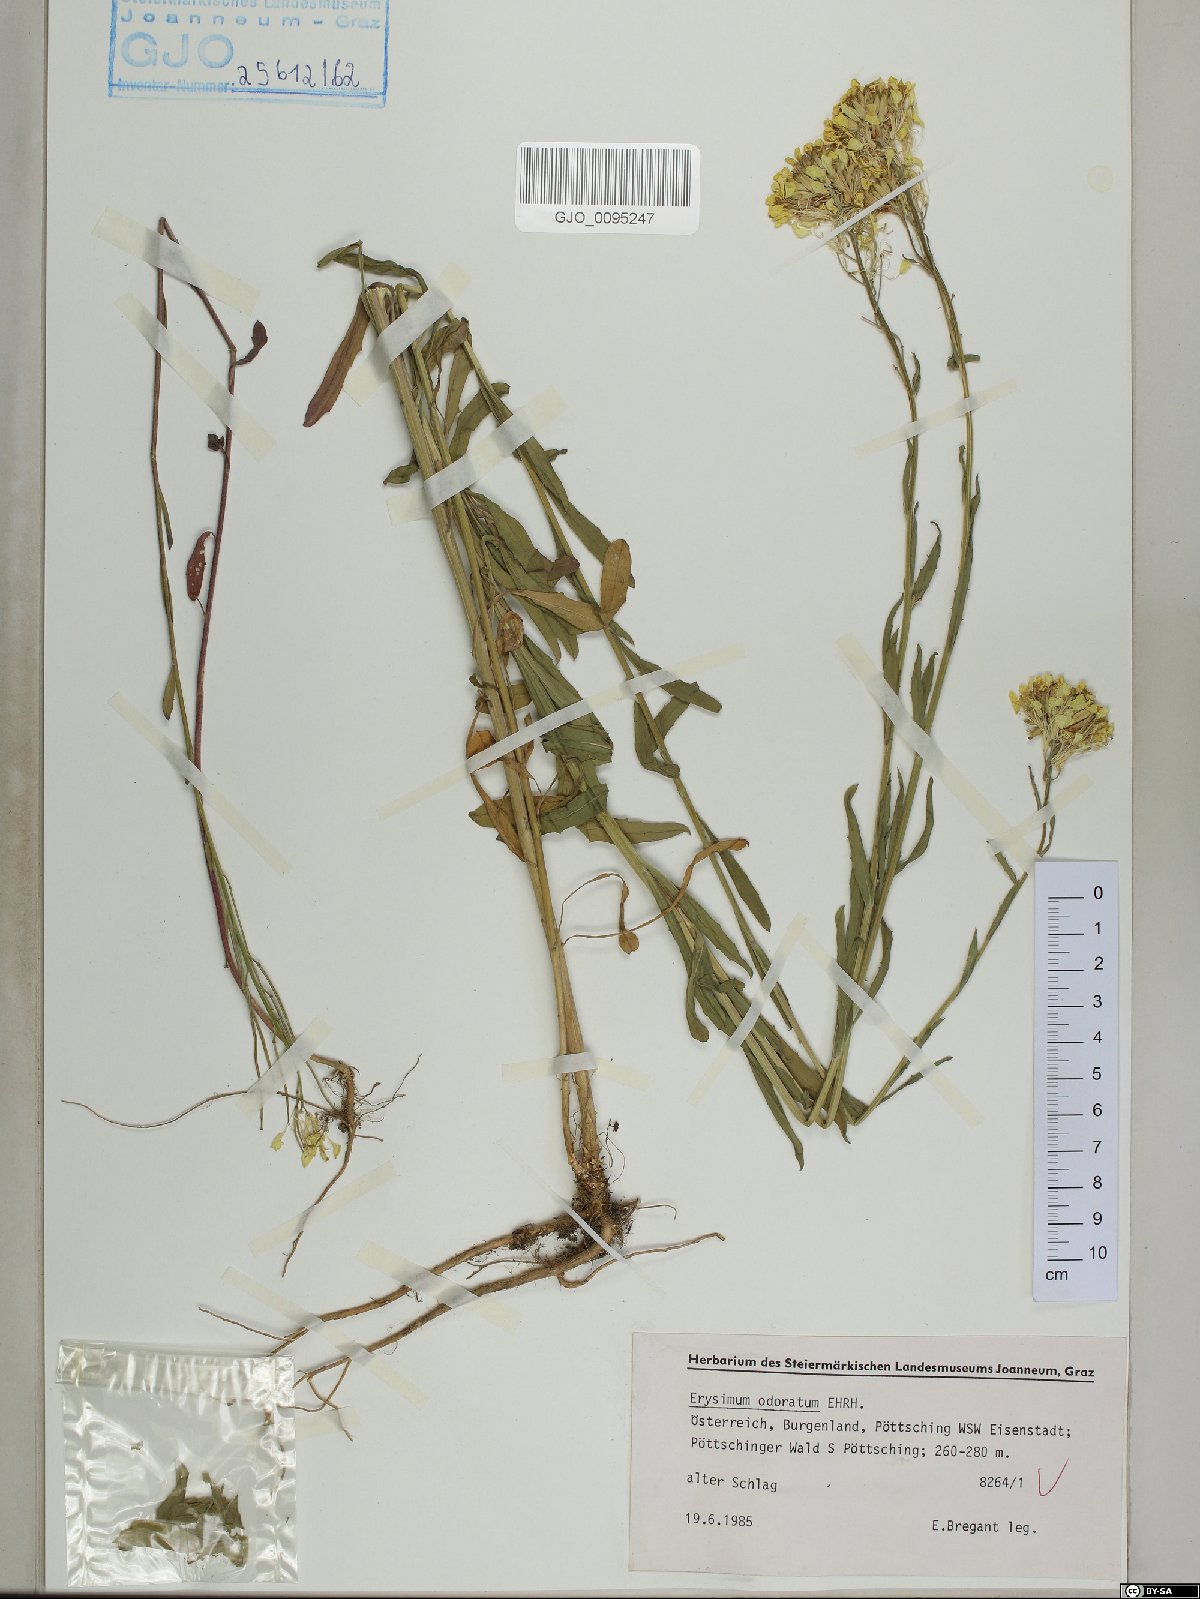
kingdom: Plantae
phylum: Tracheophyta
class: Magnoliopsida
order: Brassicales
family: Brassicaceae
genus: Erysimum
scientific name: Erysimum odoratum
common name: Smelly wallflower
